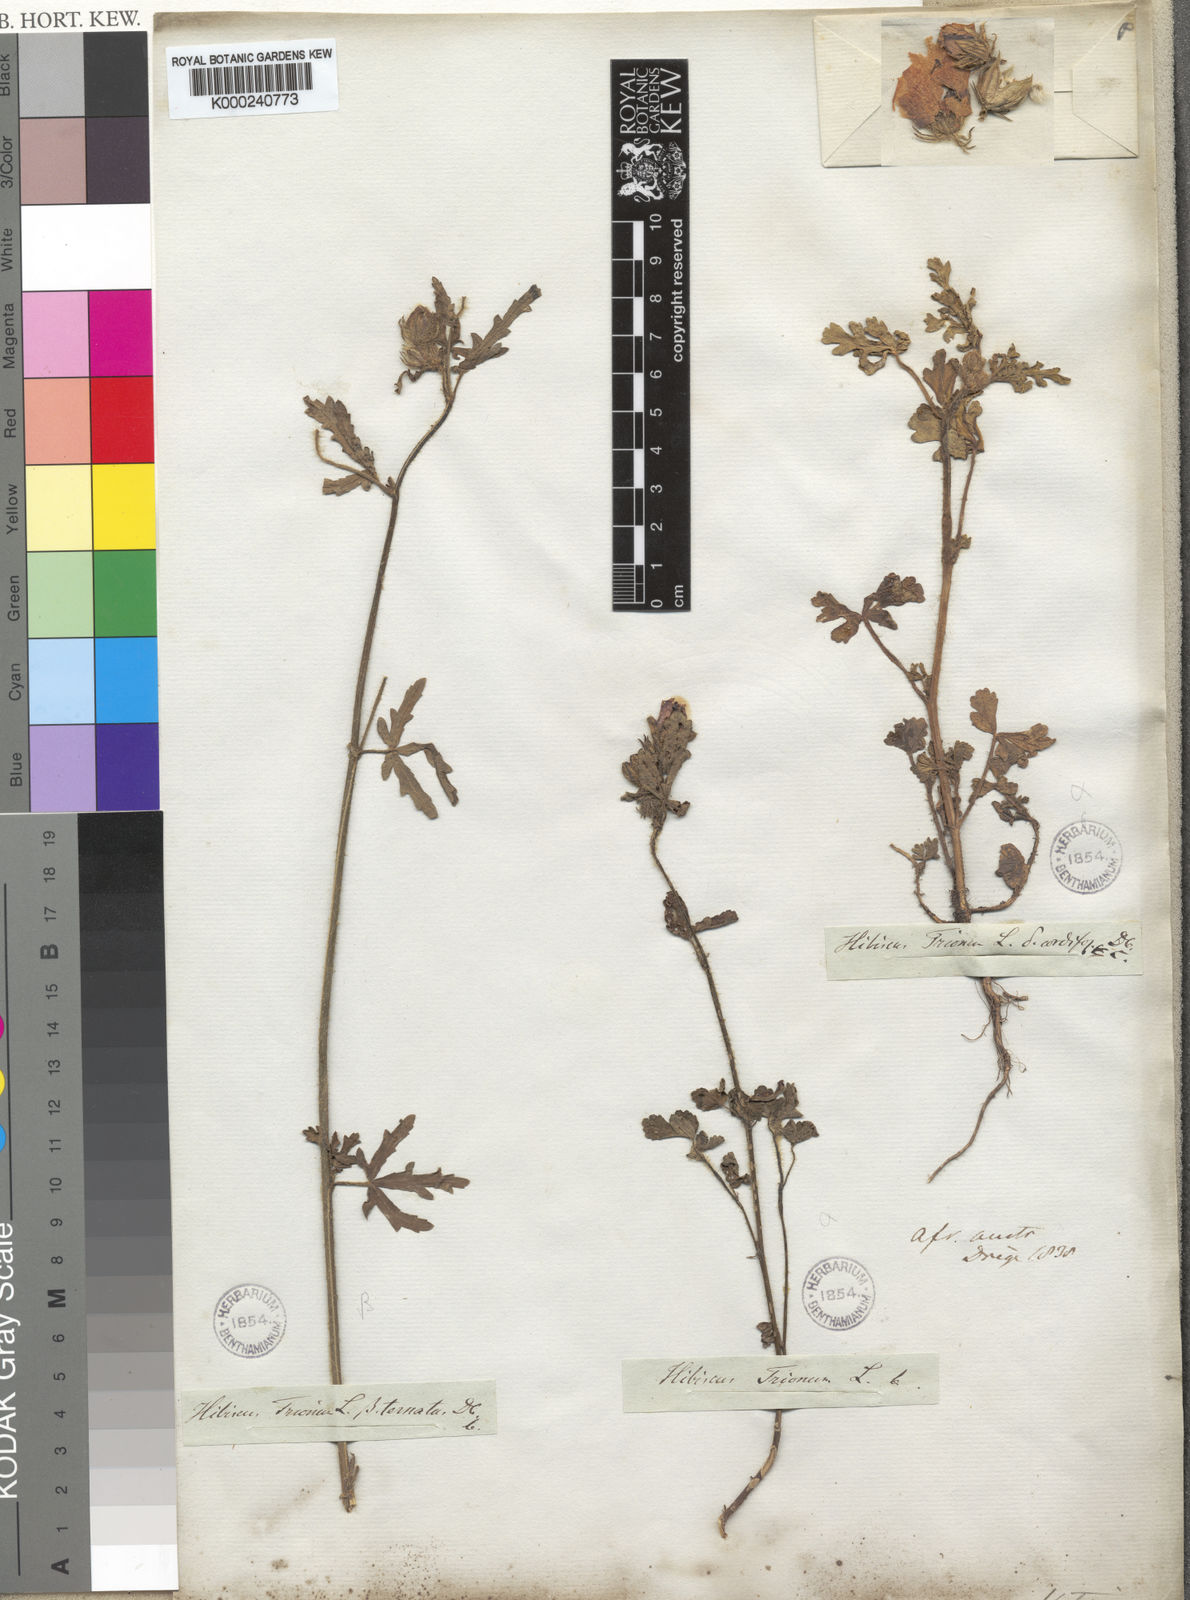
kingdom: Plantae
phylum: Tracheophyta
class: Magnoliopsida
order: Malvales
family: Malvaceae
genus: Hibiscus
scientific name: Hibiscus trionum
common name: Bladder ketmia
